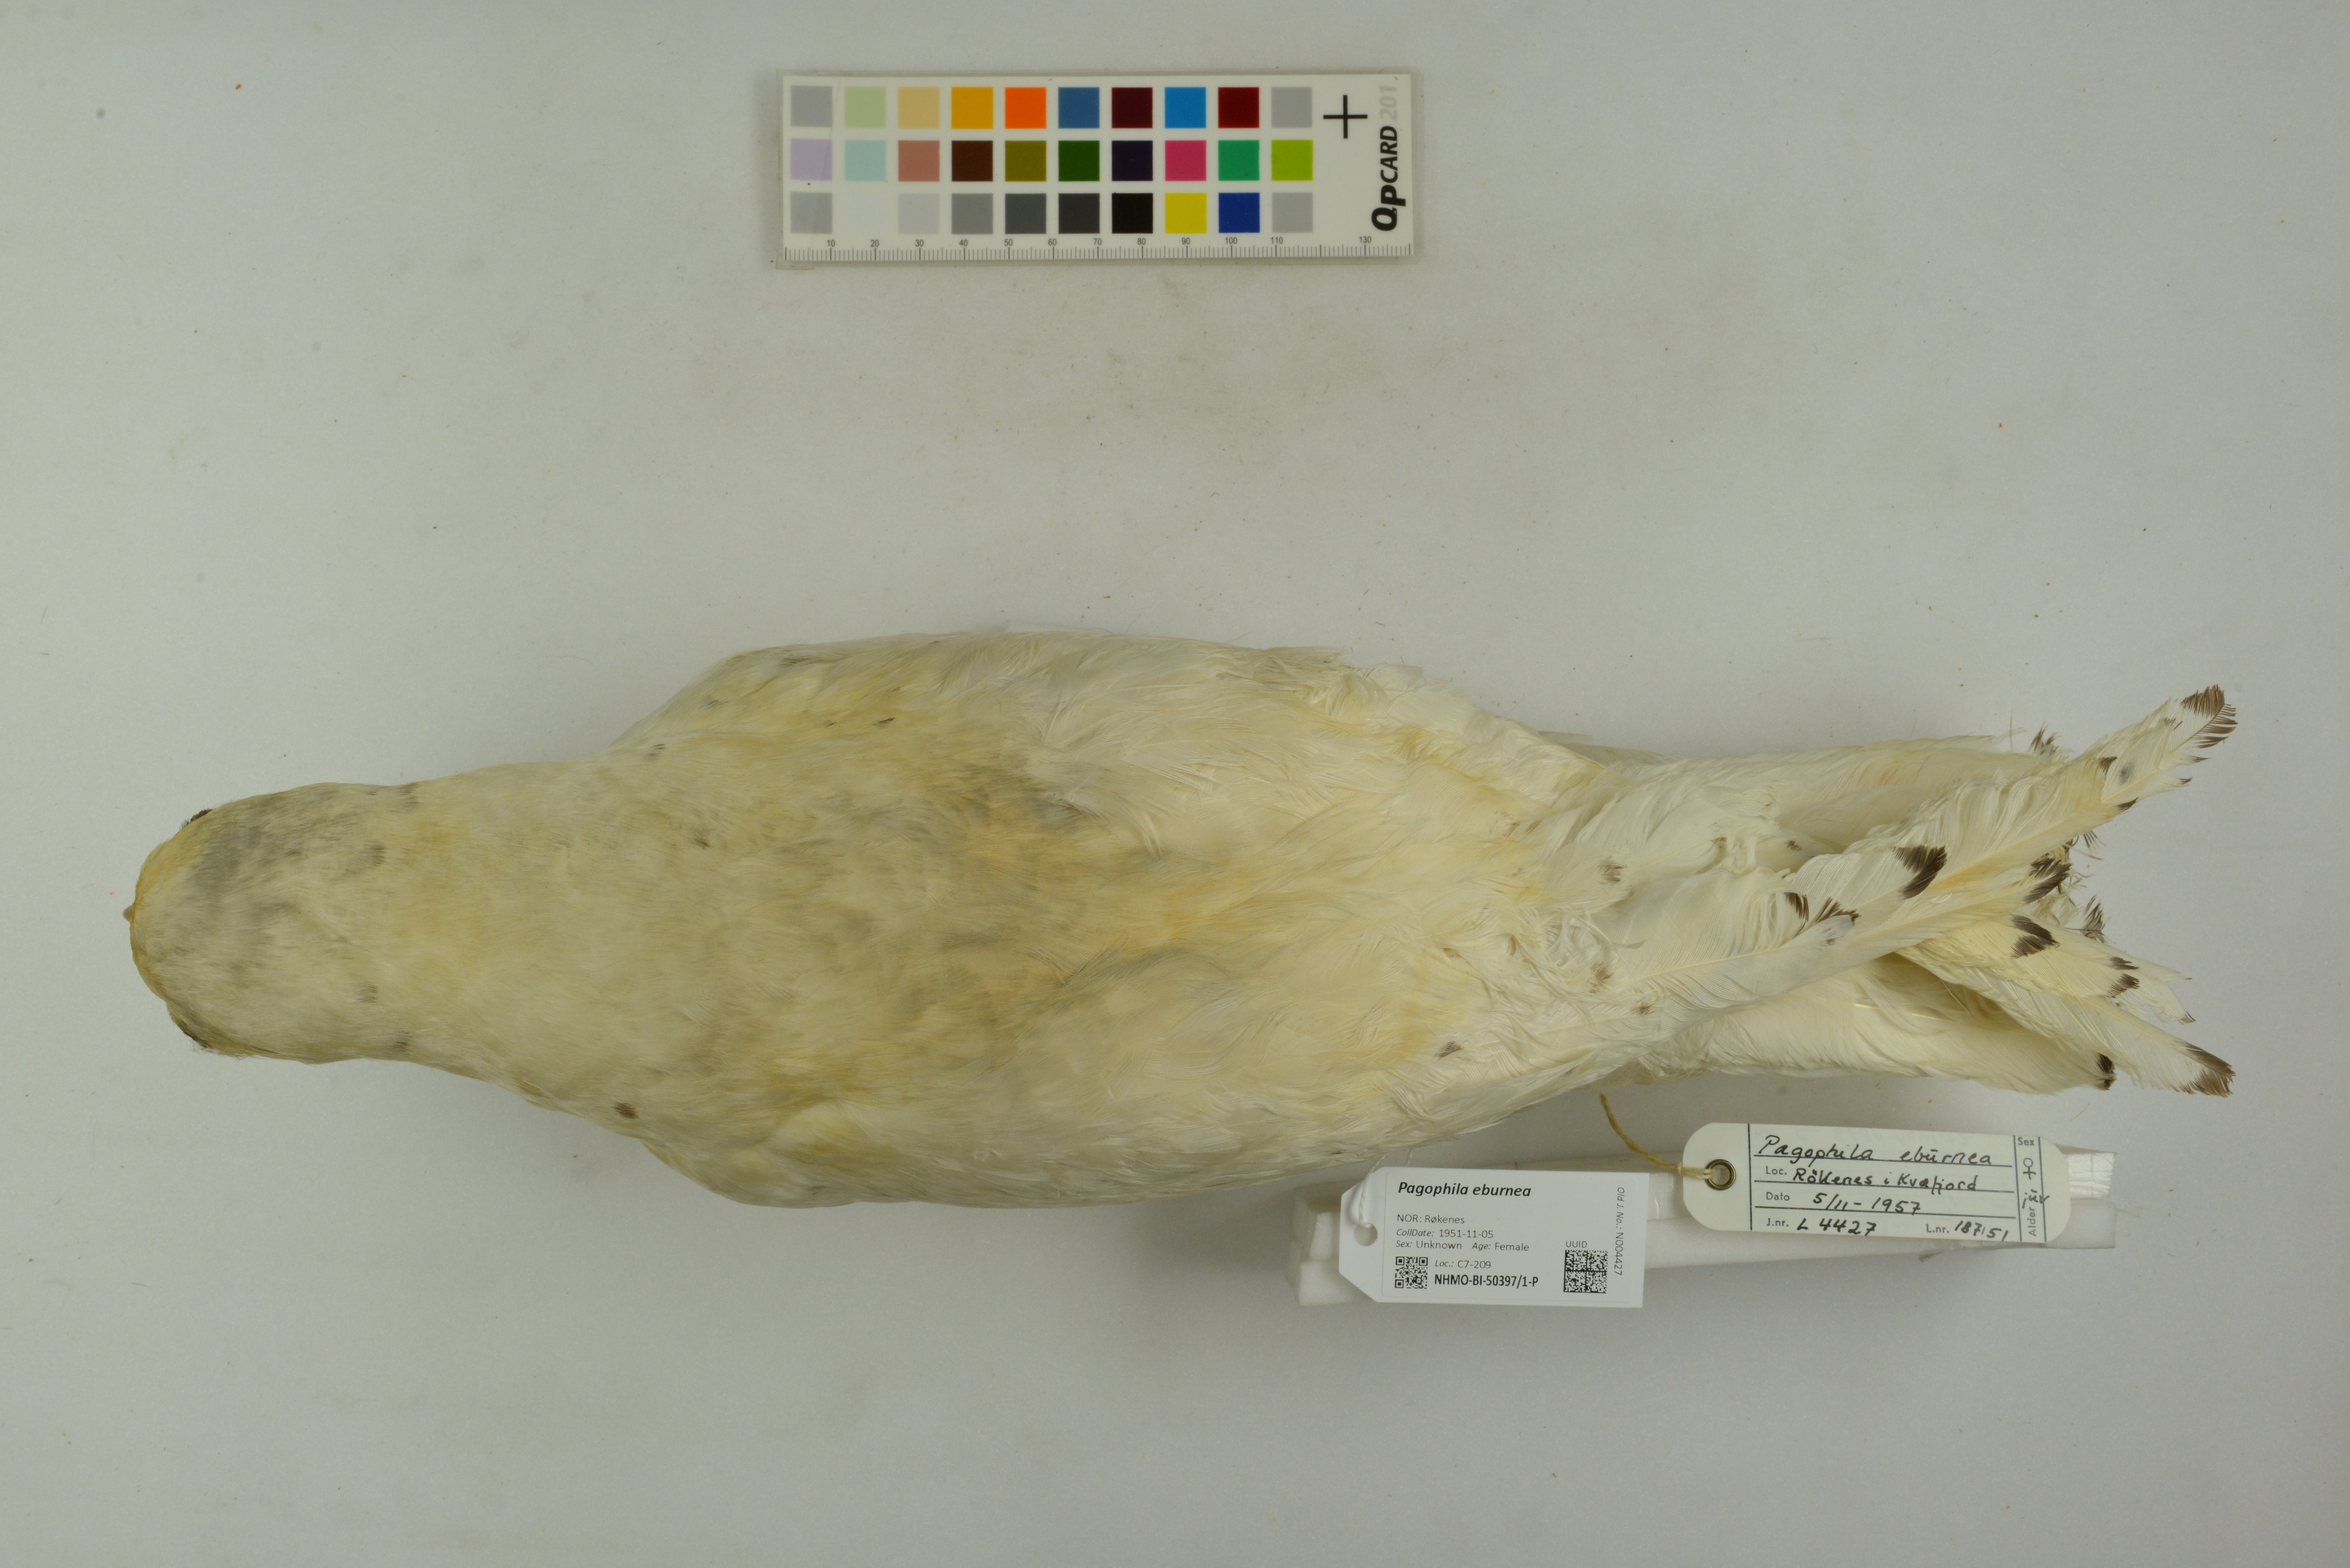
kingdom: Animalia
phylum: Chordata
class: Aves
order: Charadriiformes
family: Laridae
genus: Pagophila
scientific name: Pagophila eburnea
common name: Ivory gull
